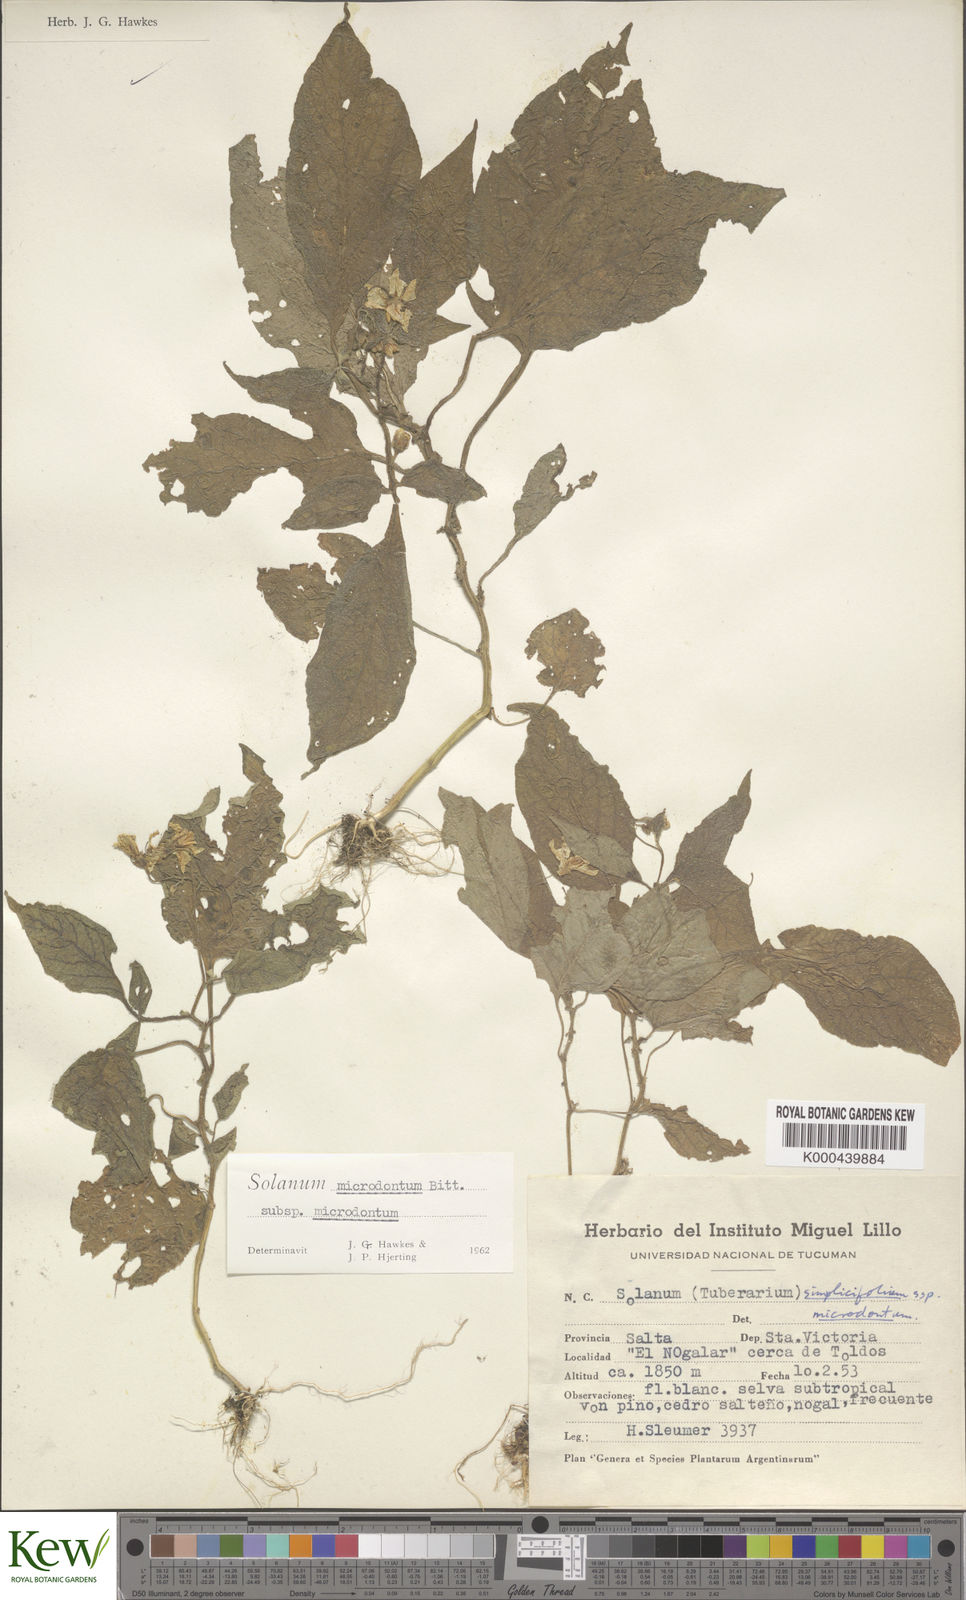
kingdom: Plantae
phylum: Tracheophyta
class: Magnoliopsida
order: Solanales
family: Solanaceae
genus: Solanum
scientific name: Solanum microdontum
